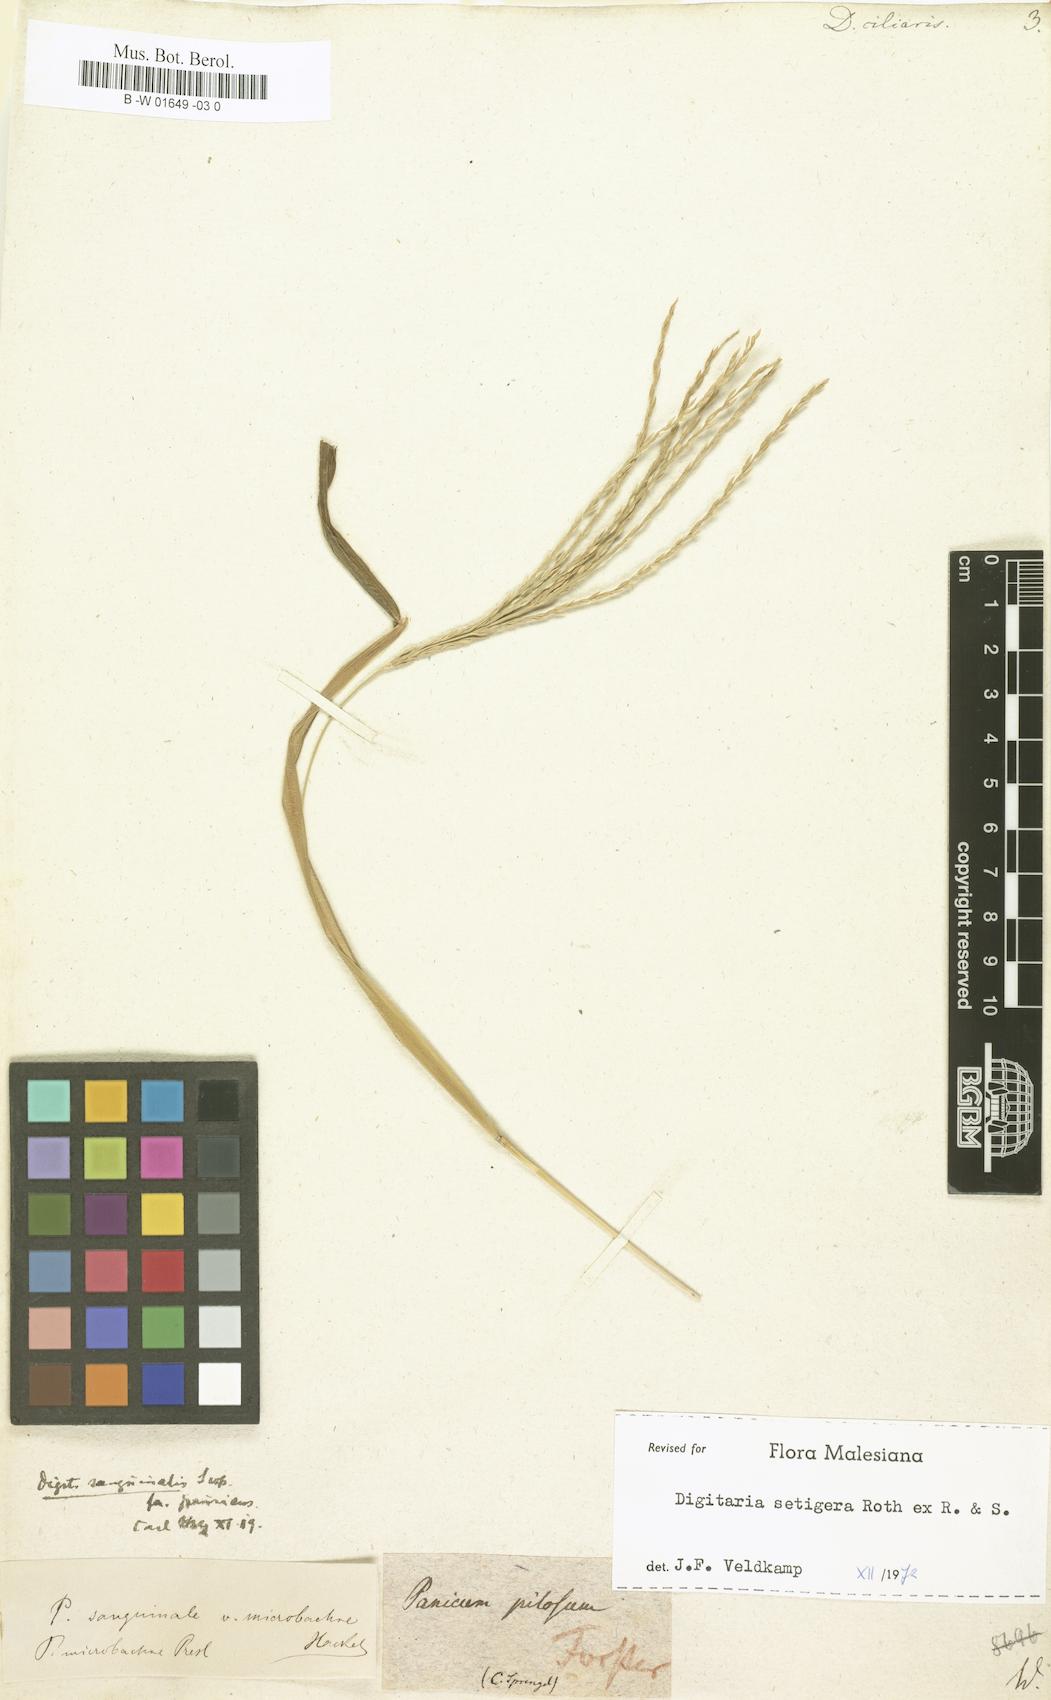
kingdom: Plantae
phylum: Tracheophyta
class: Liliopsida
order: Poales
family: Poaceae
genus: Digitaria
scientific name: Digitaria ciliaris
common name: Tropical finger-grass
